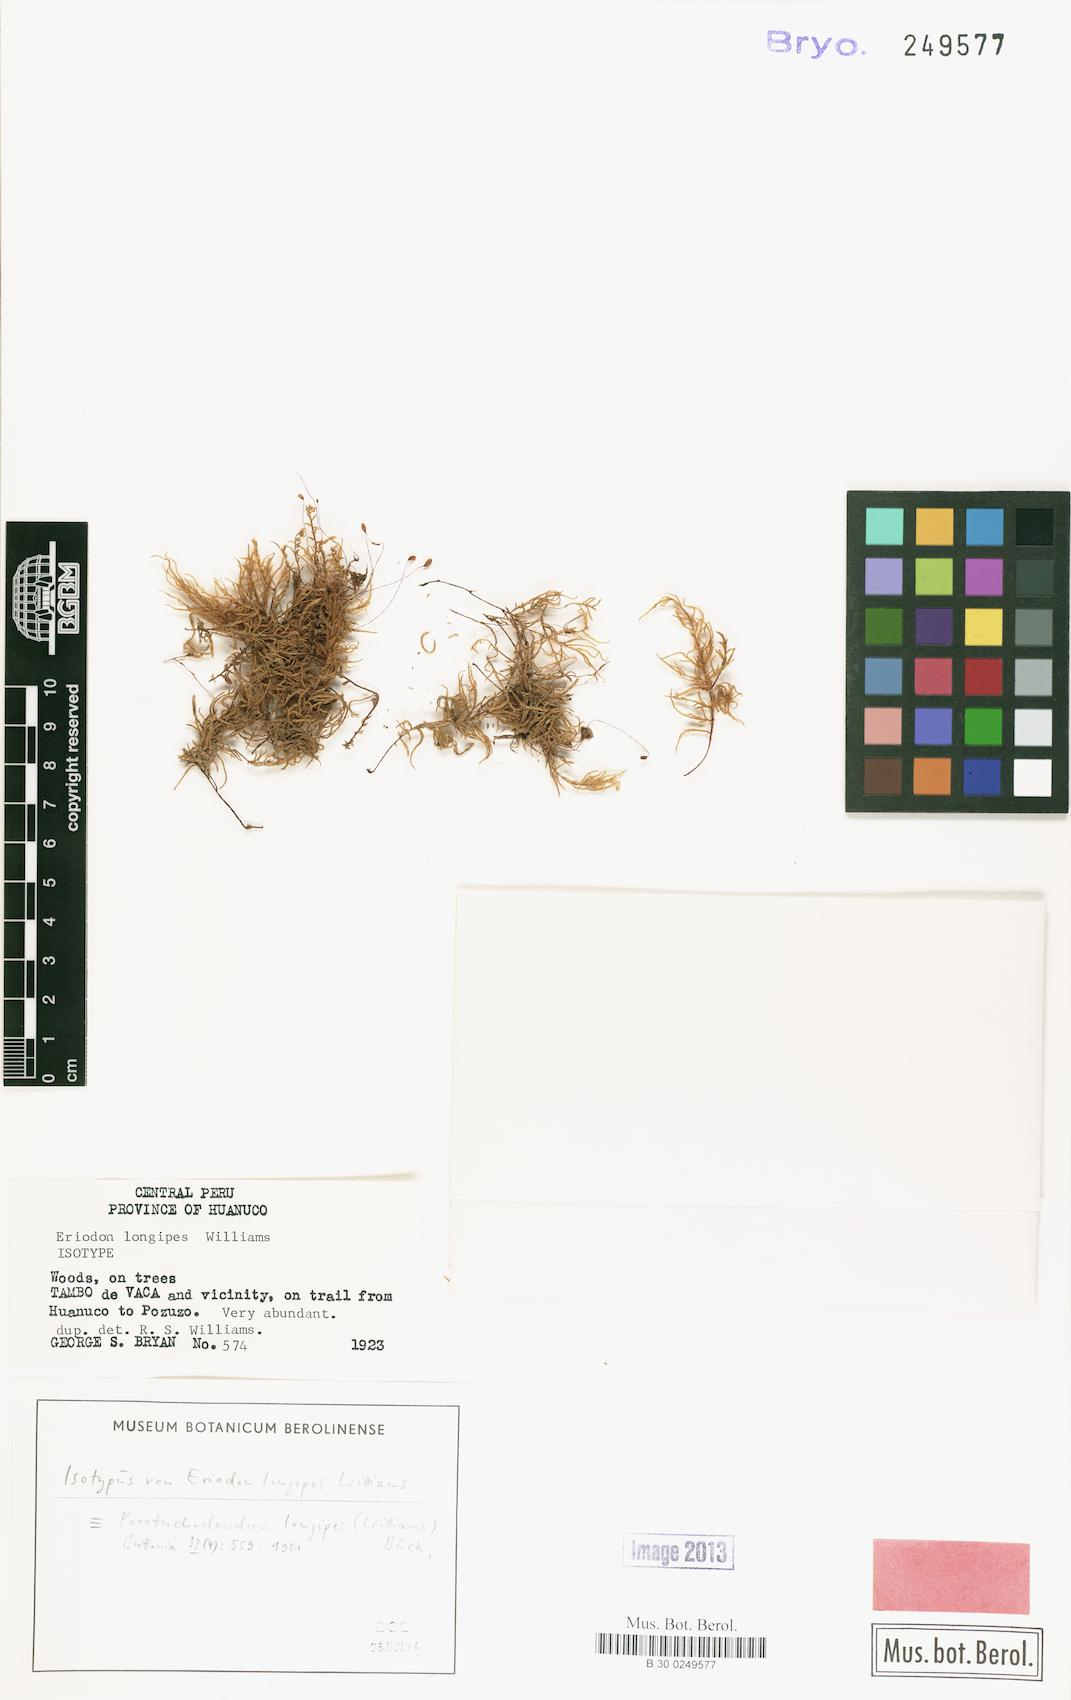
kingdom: Plantae
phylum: Bryophyta
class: Bryopsida
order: Hypnales
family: Neckeraceae
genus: Porotrichum
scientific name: Porotrichum superbum
